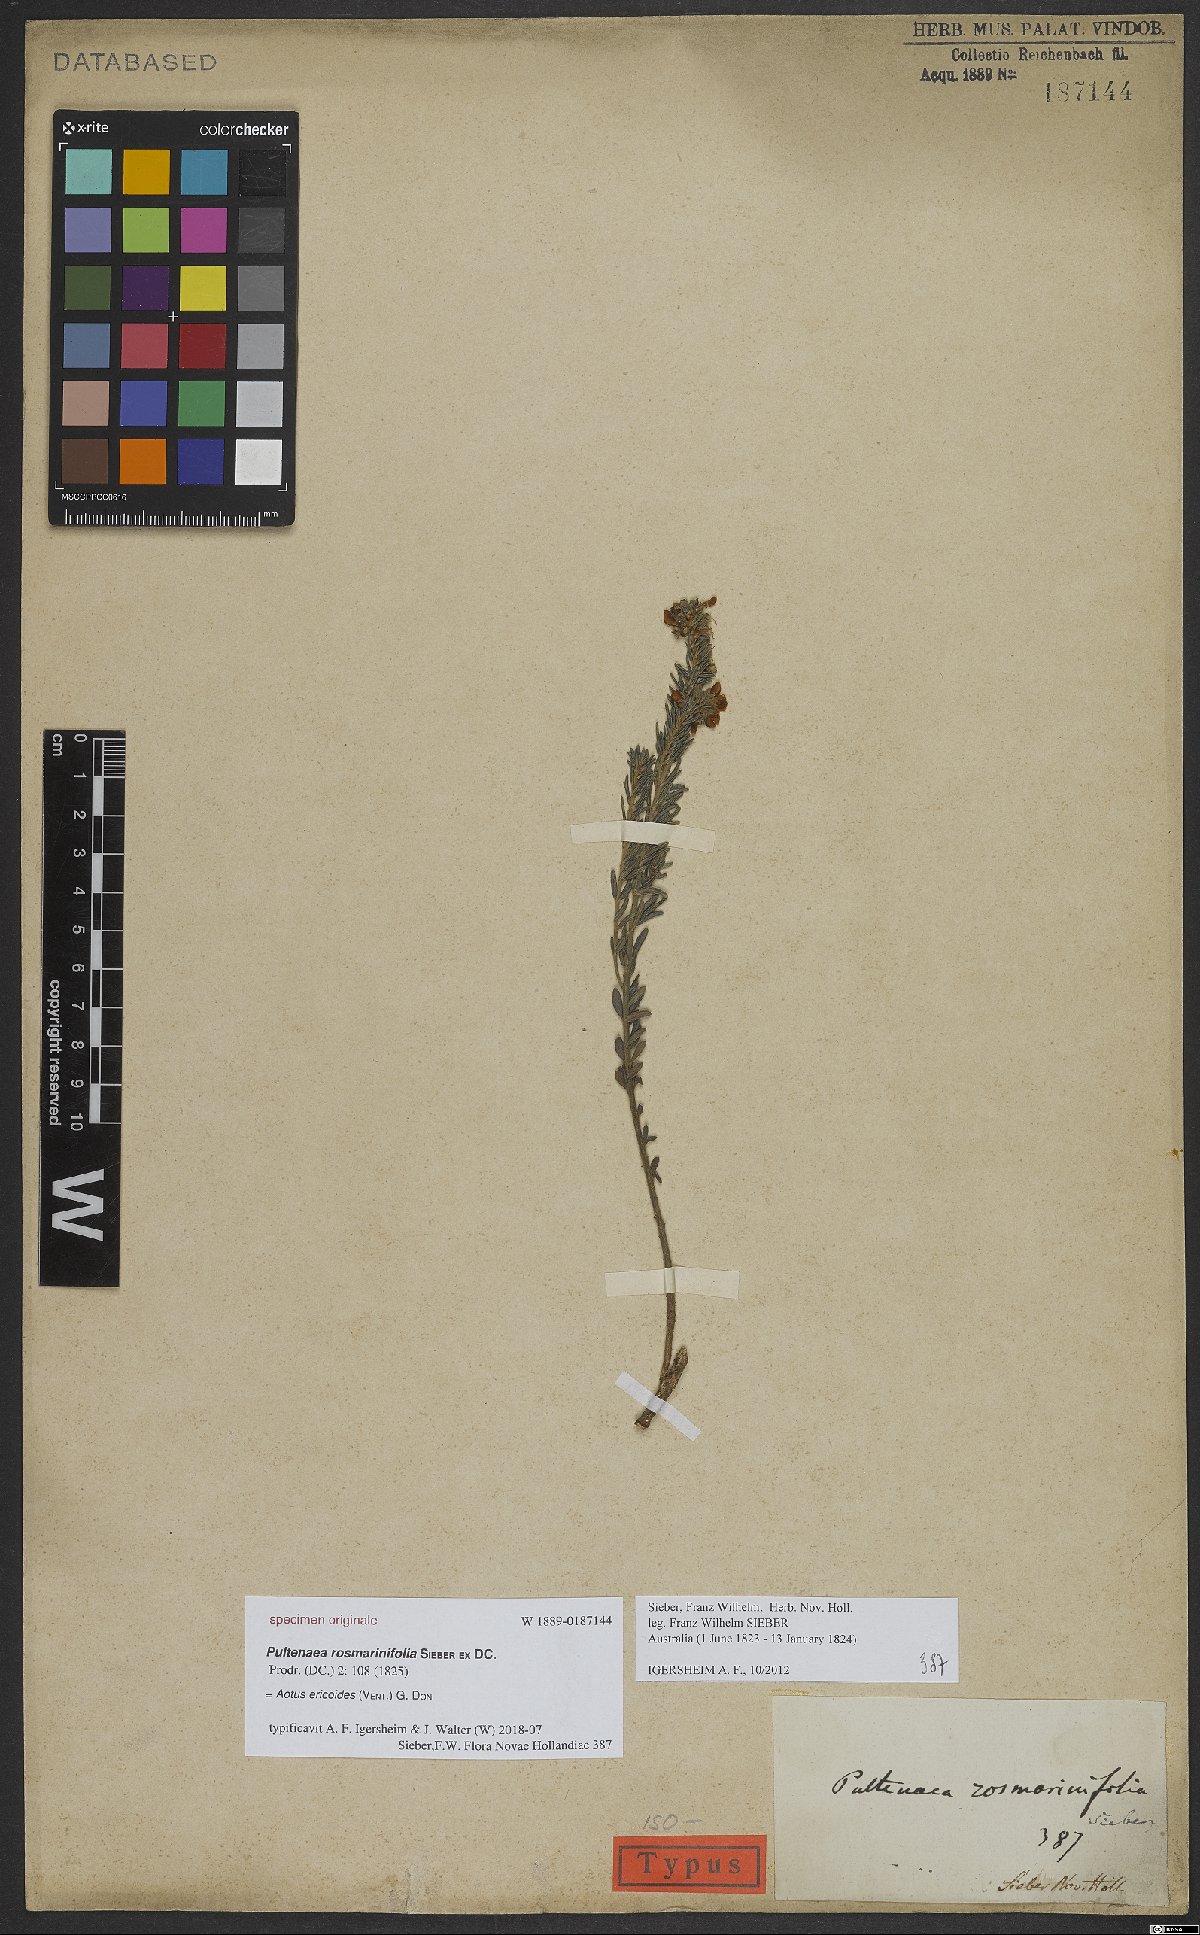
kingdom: Plantae
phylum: Tracheophyta
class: Magnoliopsida
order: Fabales
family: Fabaceae
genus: Aotus
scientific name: Aotus ericoides
